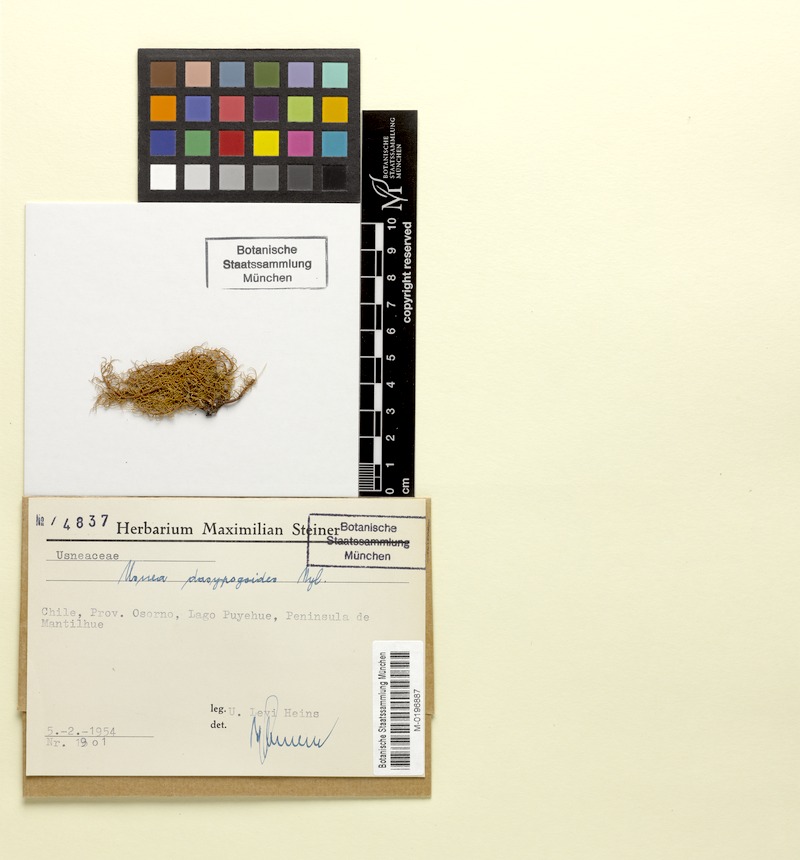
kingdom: Fungi
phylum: Ascomycota
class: Lecanoromycetes
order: Lecanorales
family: Parmeliaceae
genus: Bryoria
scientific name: Bryoria bicolor
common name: Electric horsehair lichen
